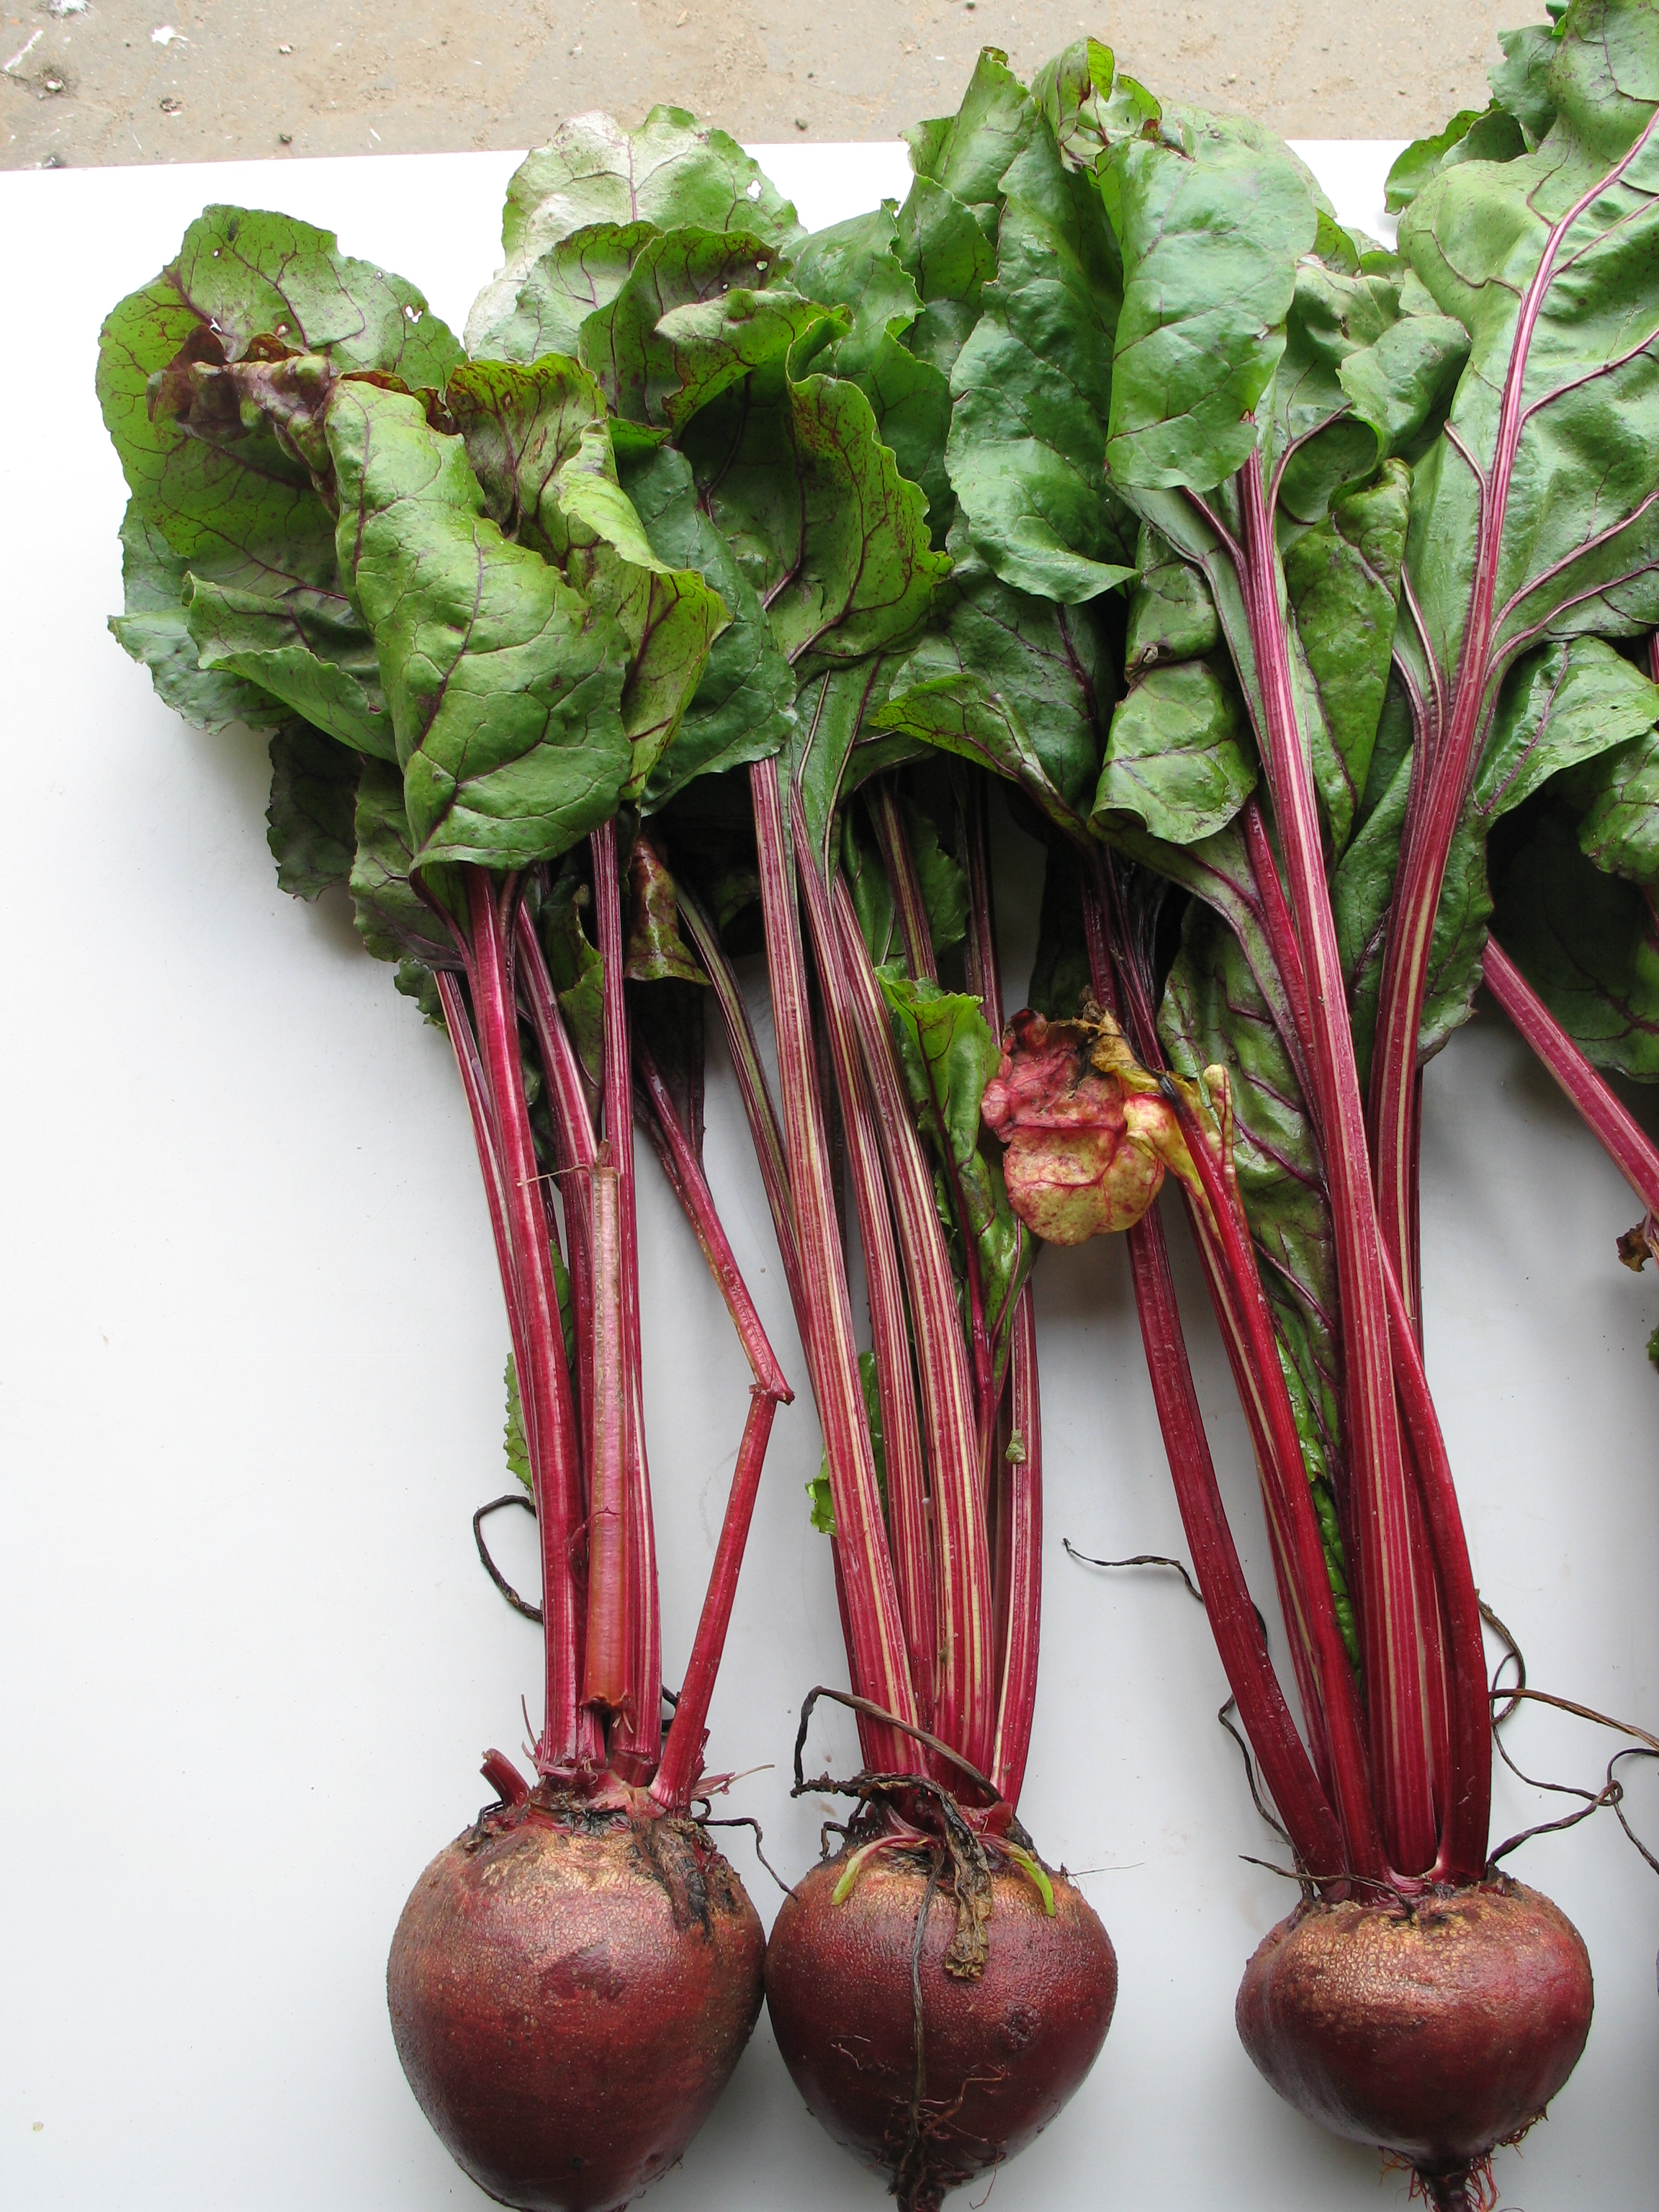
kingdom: Plantae
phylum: Tracheophyta
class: Magnoliopsida
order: Caryophyllales
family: Amaranthaceae
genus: Beta
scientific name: Beta vulgaris
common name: Beet
